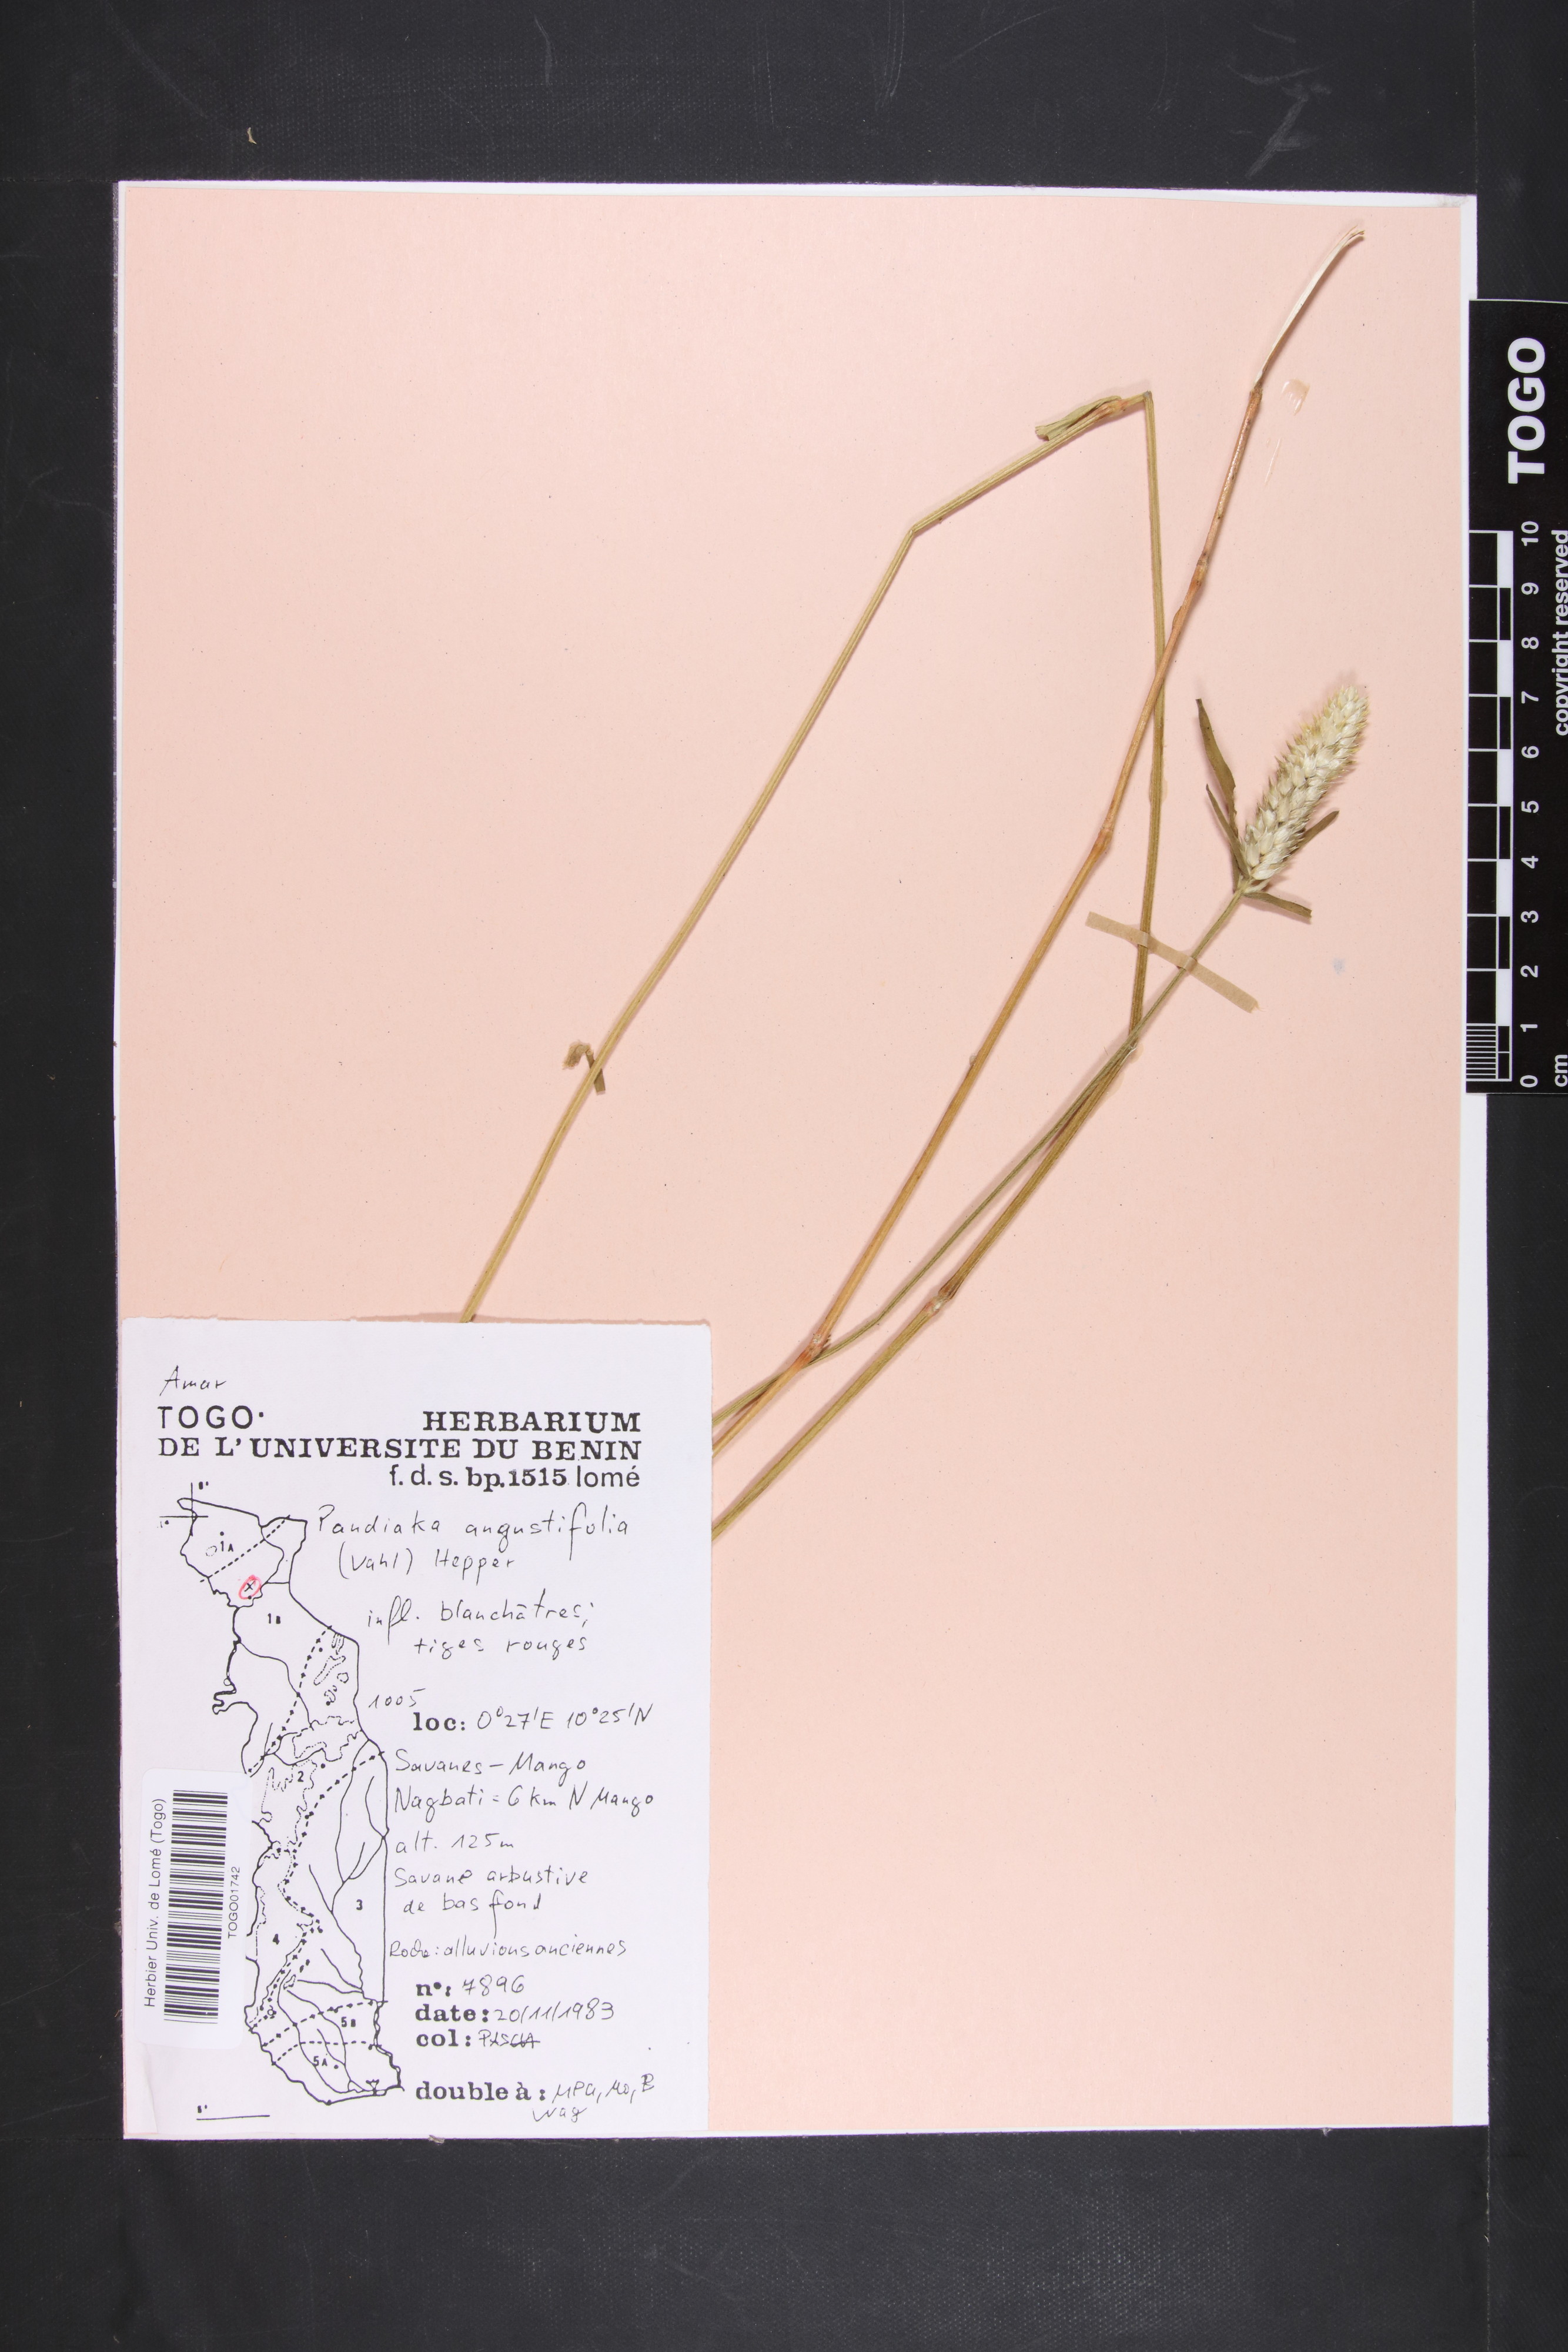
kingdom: Plantae
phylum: Tracheophyta
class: Magnoliopsida
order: Caryophyllales
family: Amaranthaceae
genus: Pandiaka
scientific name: Pandiaka angustifolia
